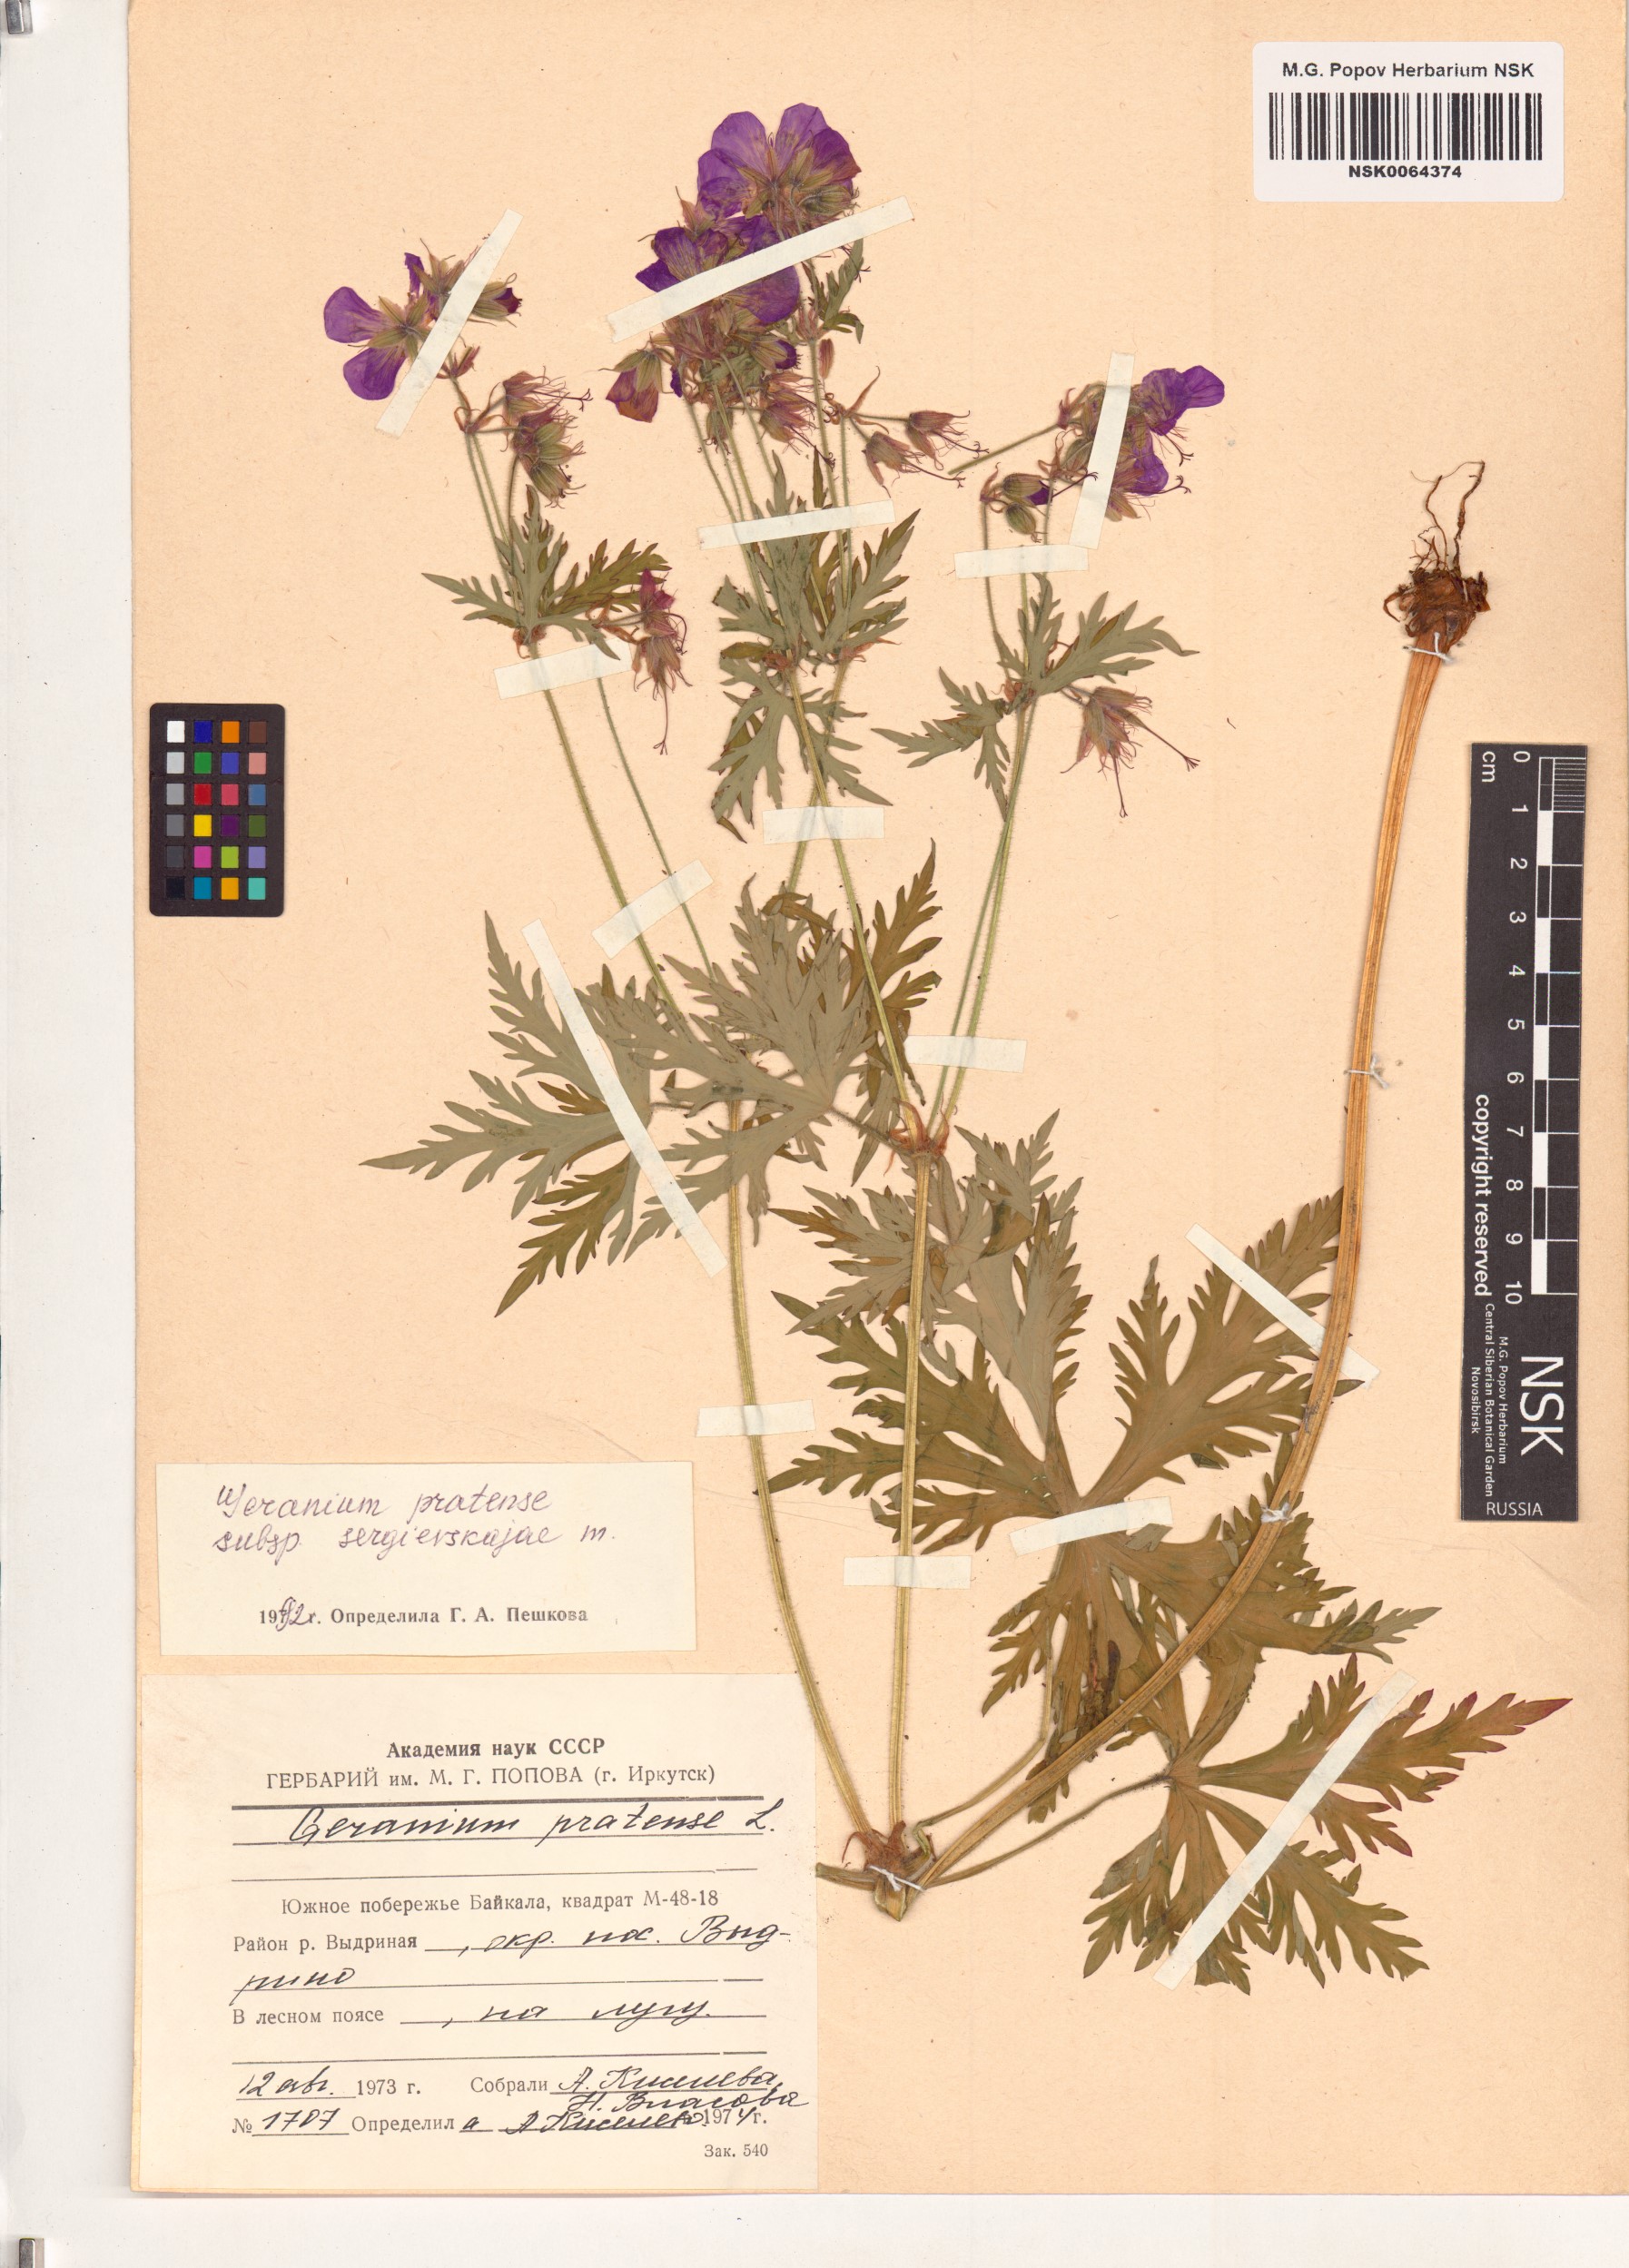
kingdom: Plantae
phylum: Tracheophyta
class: Magnoliopsida
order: Geraniales
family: Geraniaceae
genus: Geranium
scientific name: Geranium pratense
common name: Meadow crane's-bill
